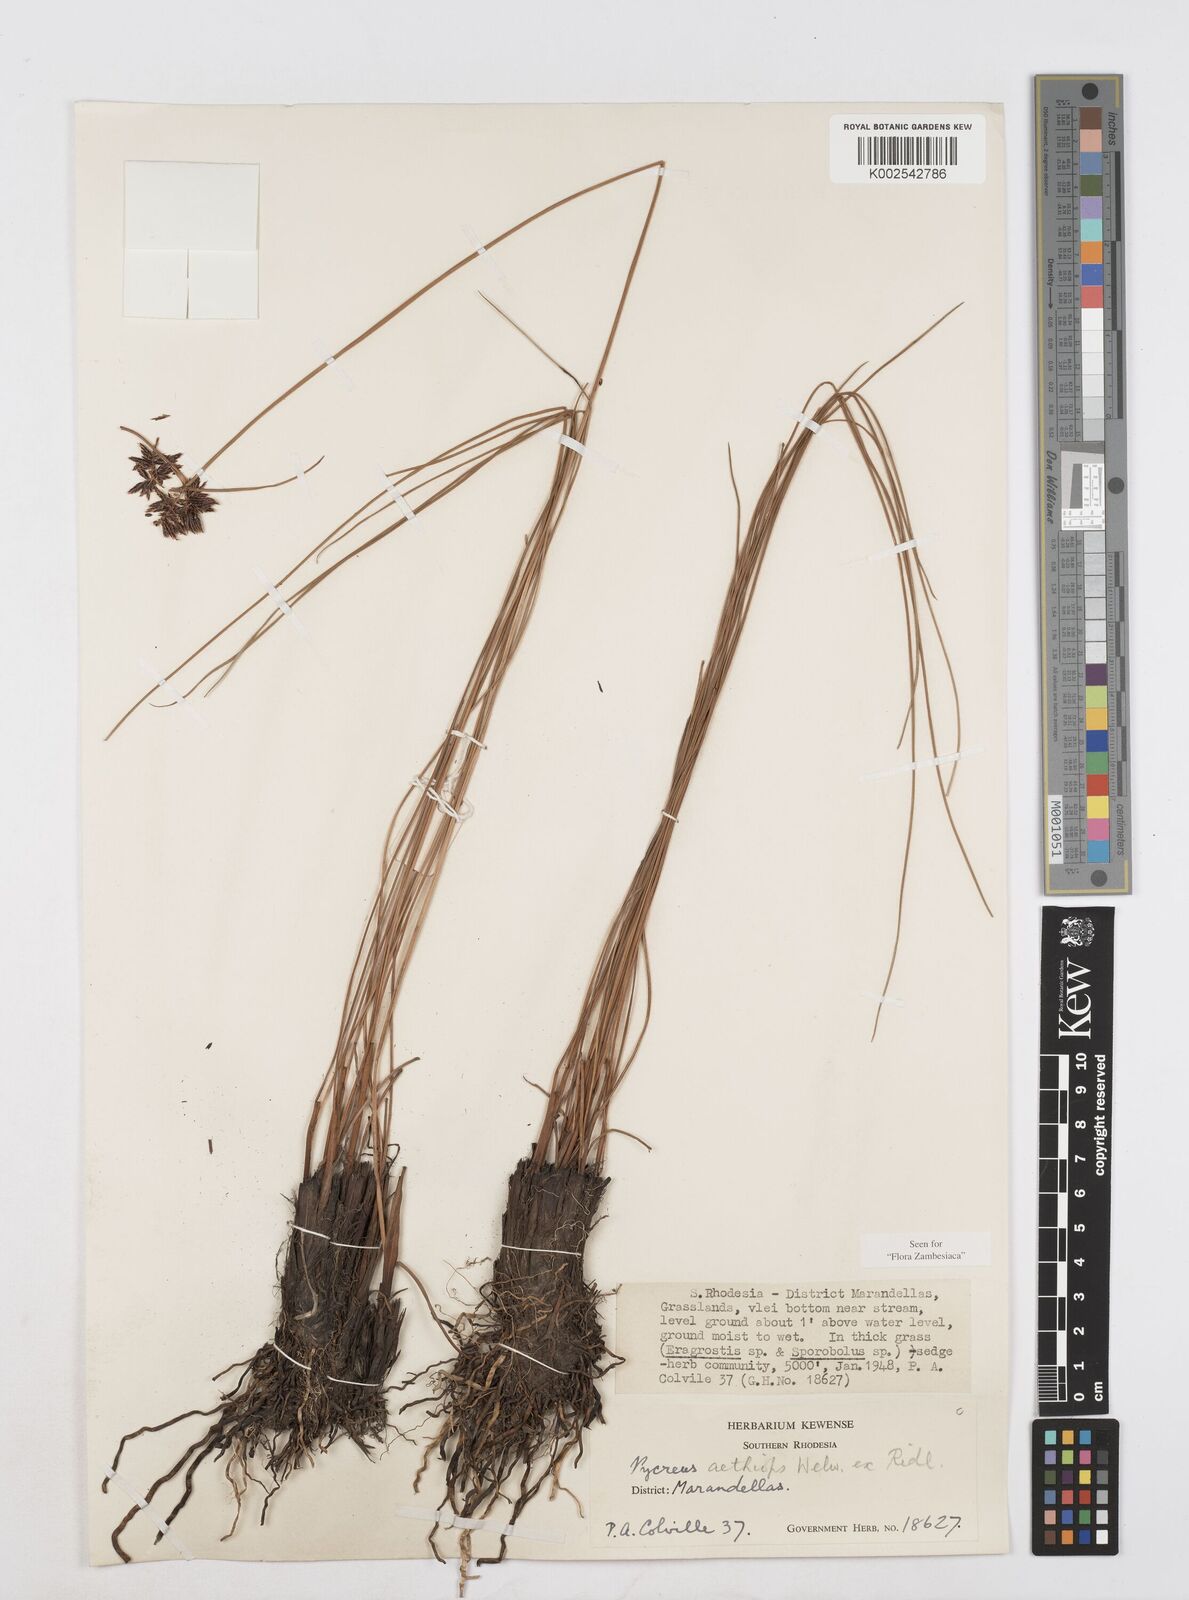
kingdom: Plantae
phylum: Tracheophyta
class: Liliopsida
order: Poales
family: Cyperaceae
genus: Cyperus
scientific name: Cyperus aethiops
